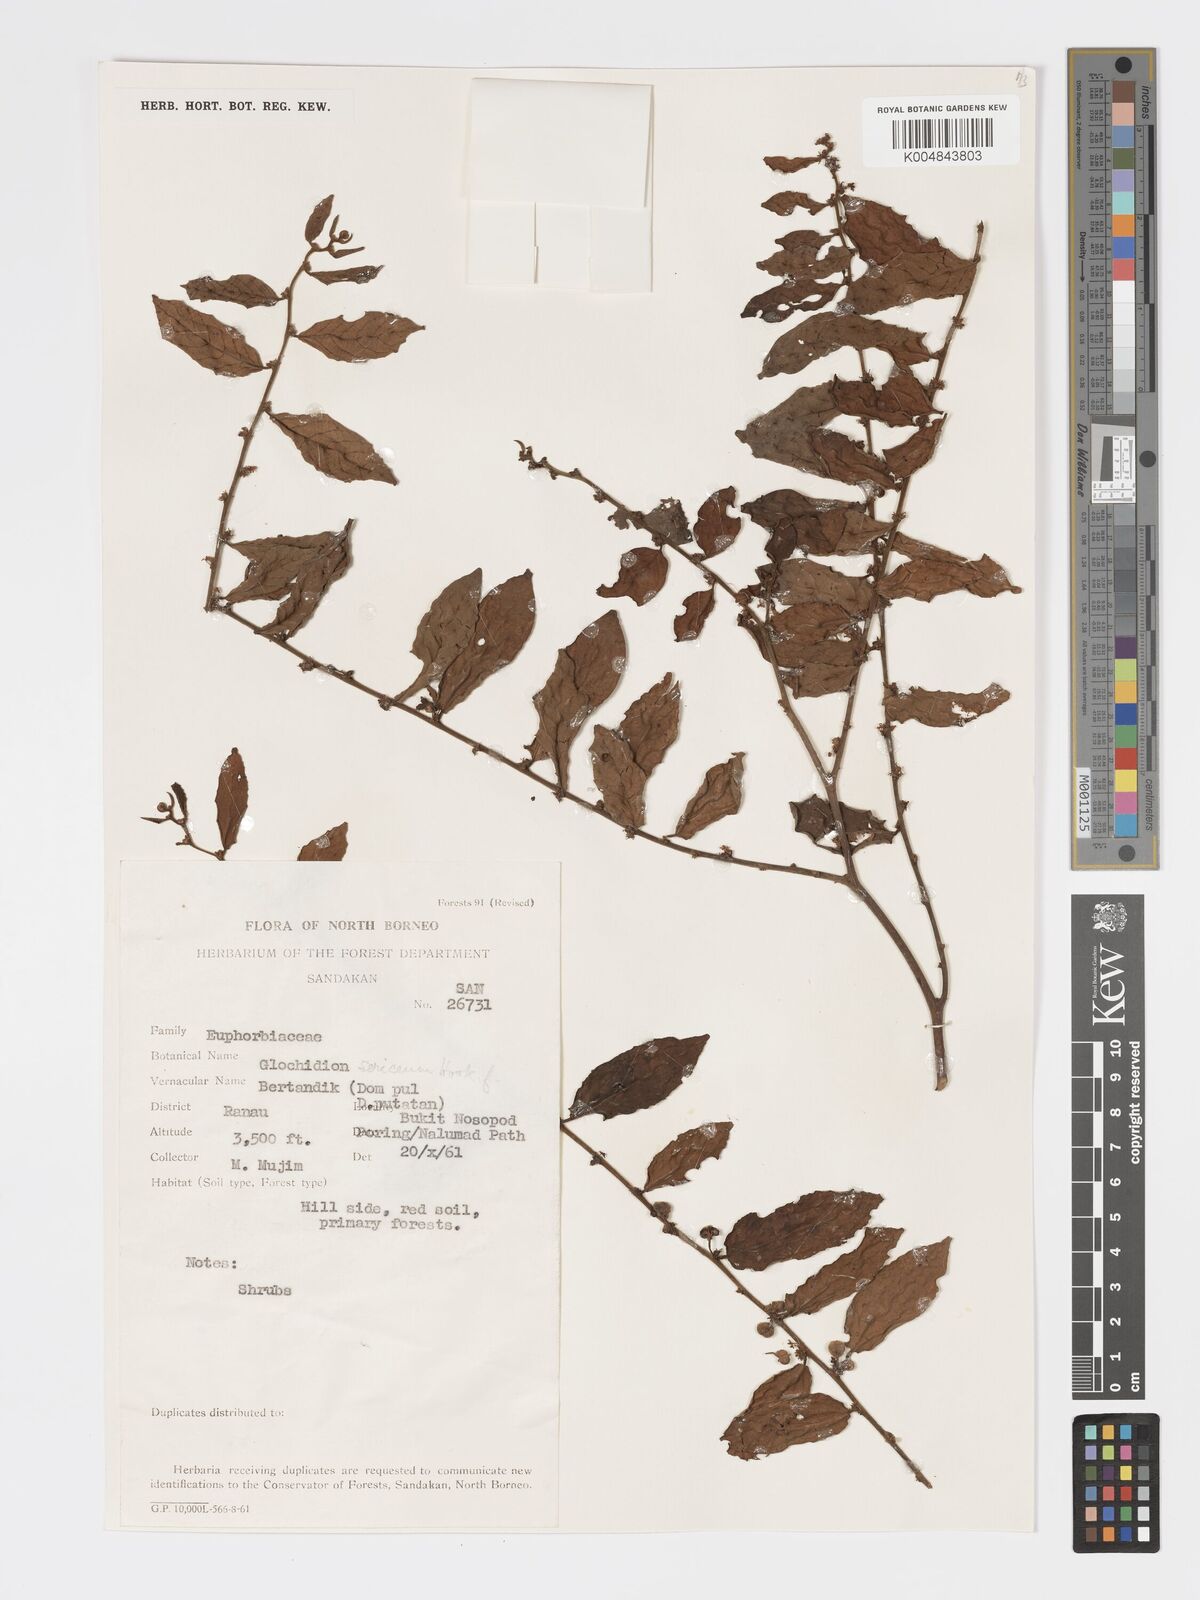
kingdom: Plantae
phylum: Tracheophyta
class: Magnoliopsida
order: Malpighiales
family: Phyllanthaceae
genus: Glochidion
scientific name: Glochidion sericeum
